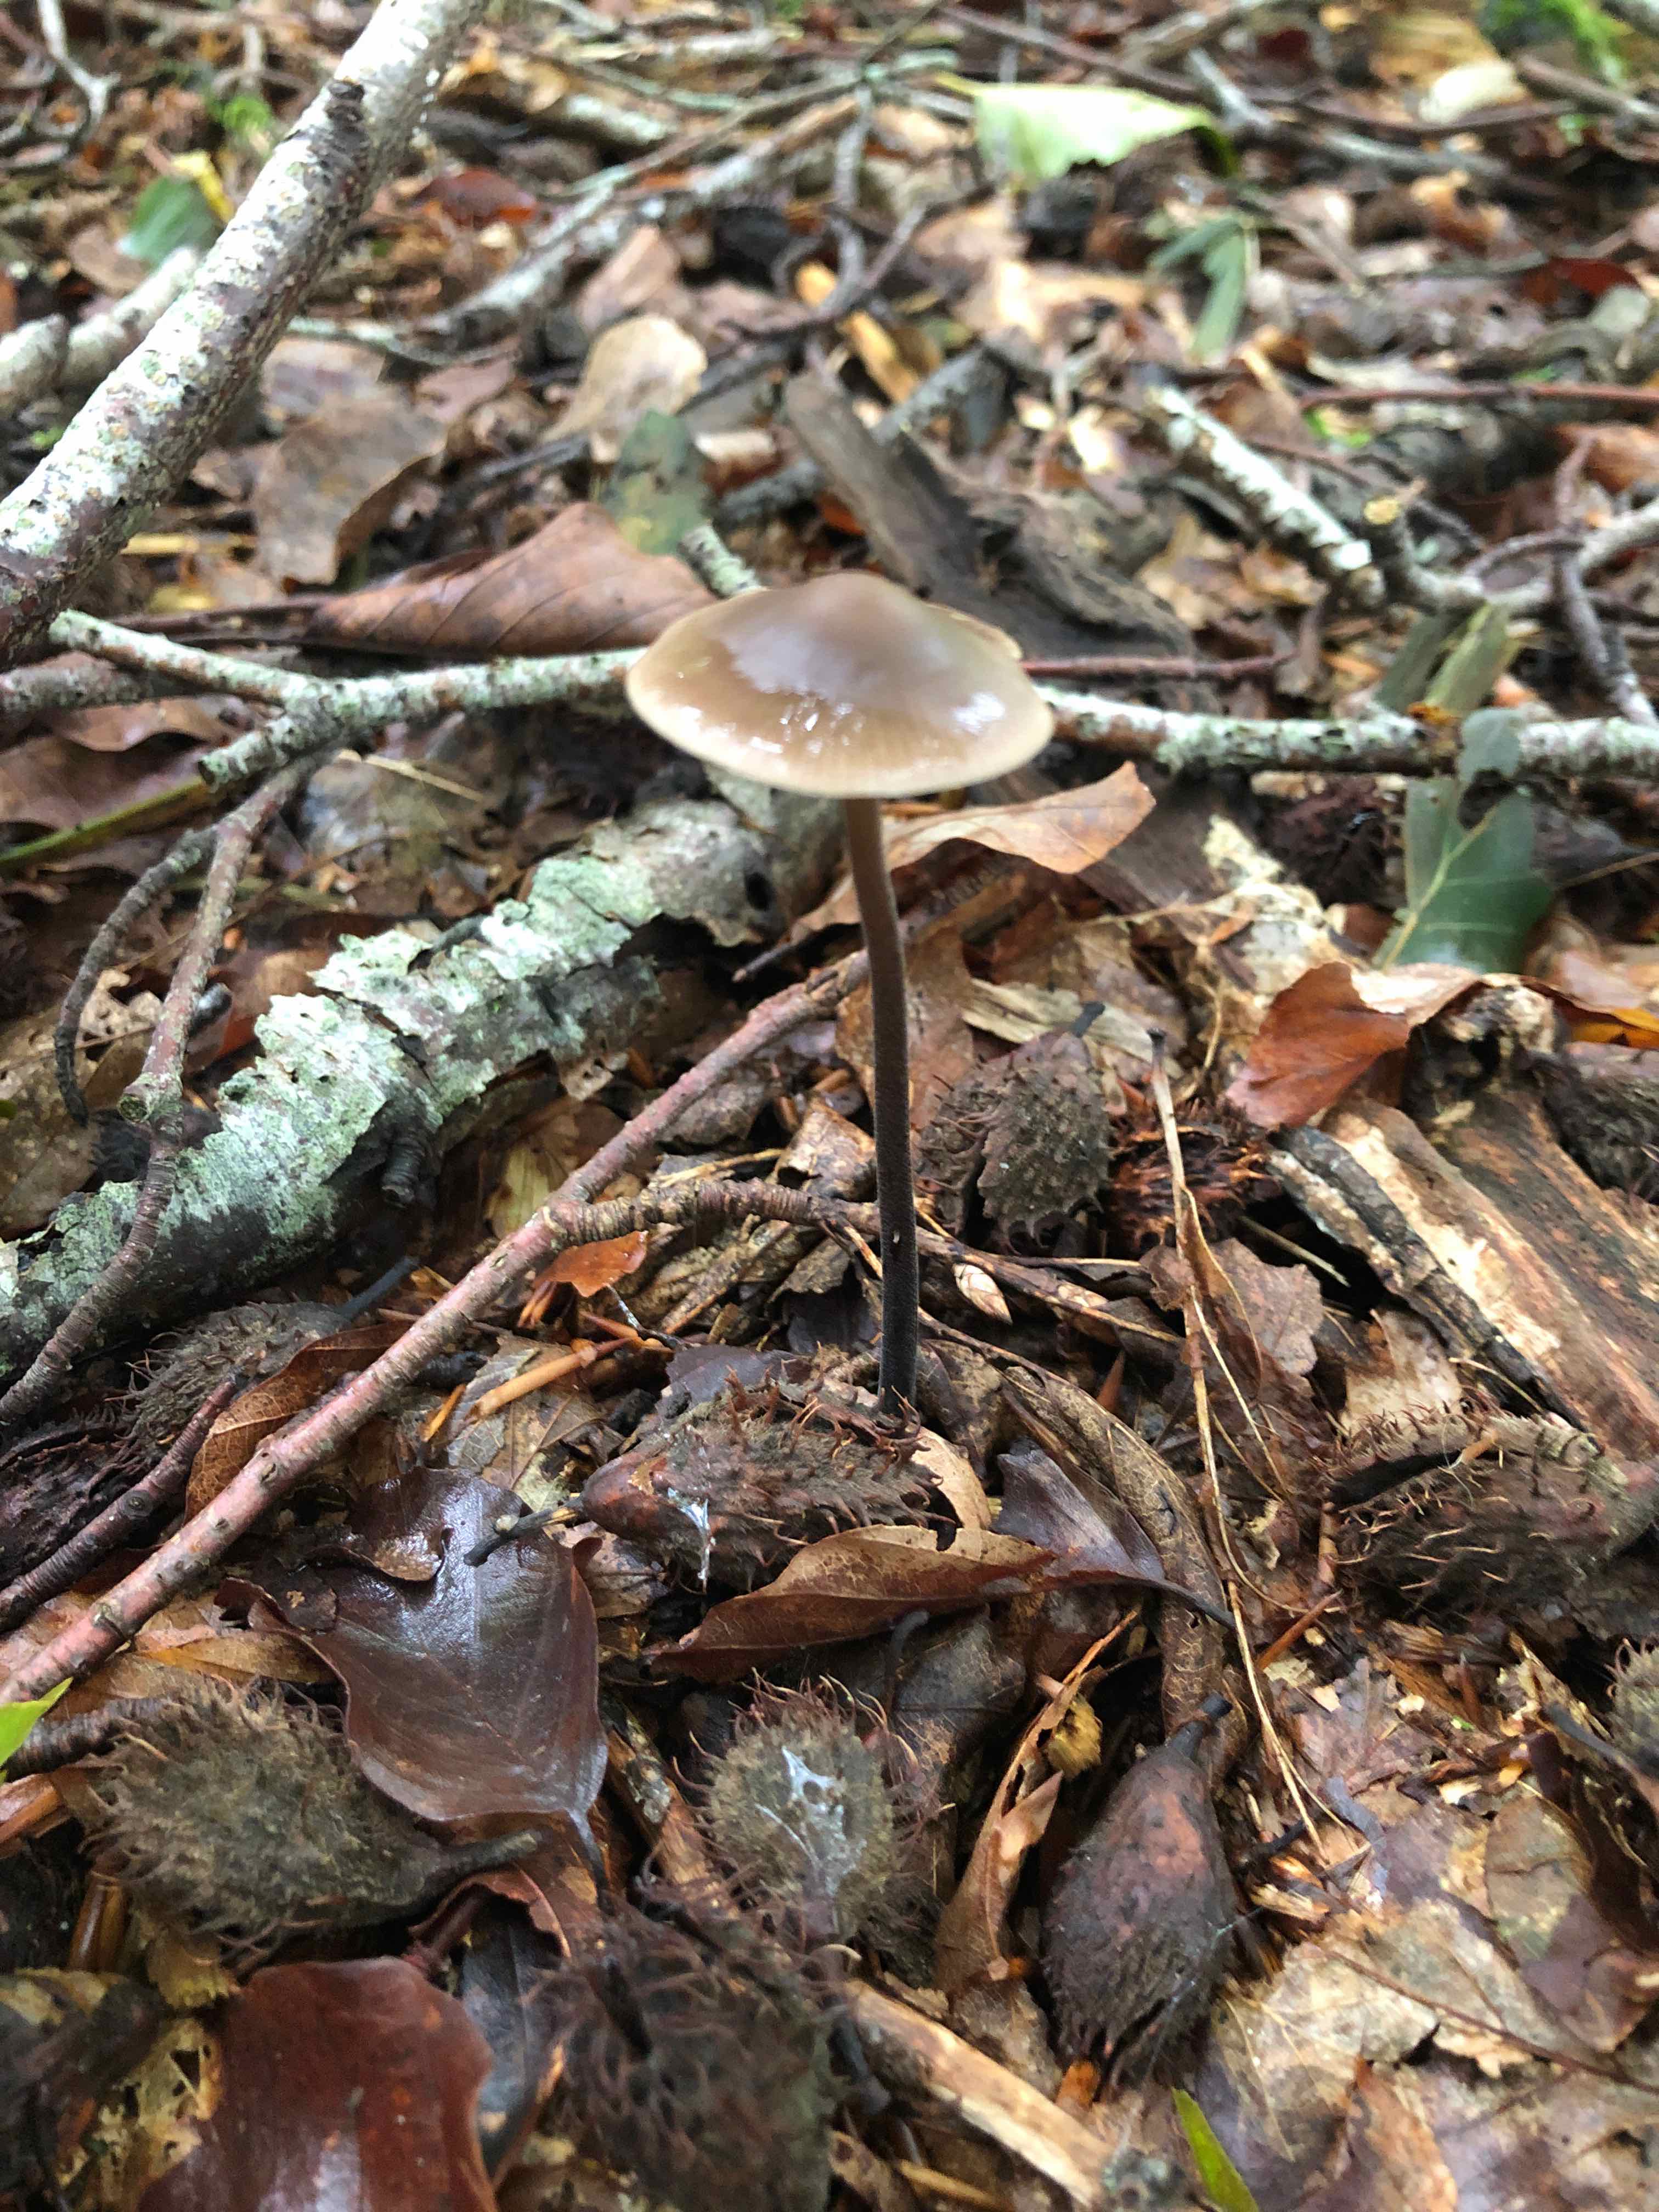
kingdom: Fungi
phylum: Basidiomycota
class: Agaricomycetes
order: Agaricales
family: Omphalotaceae
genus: Mycetinis
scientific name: Mycetinis alliaceus
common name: stor løghat
